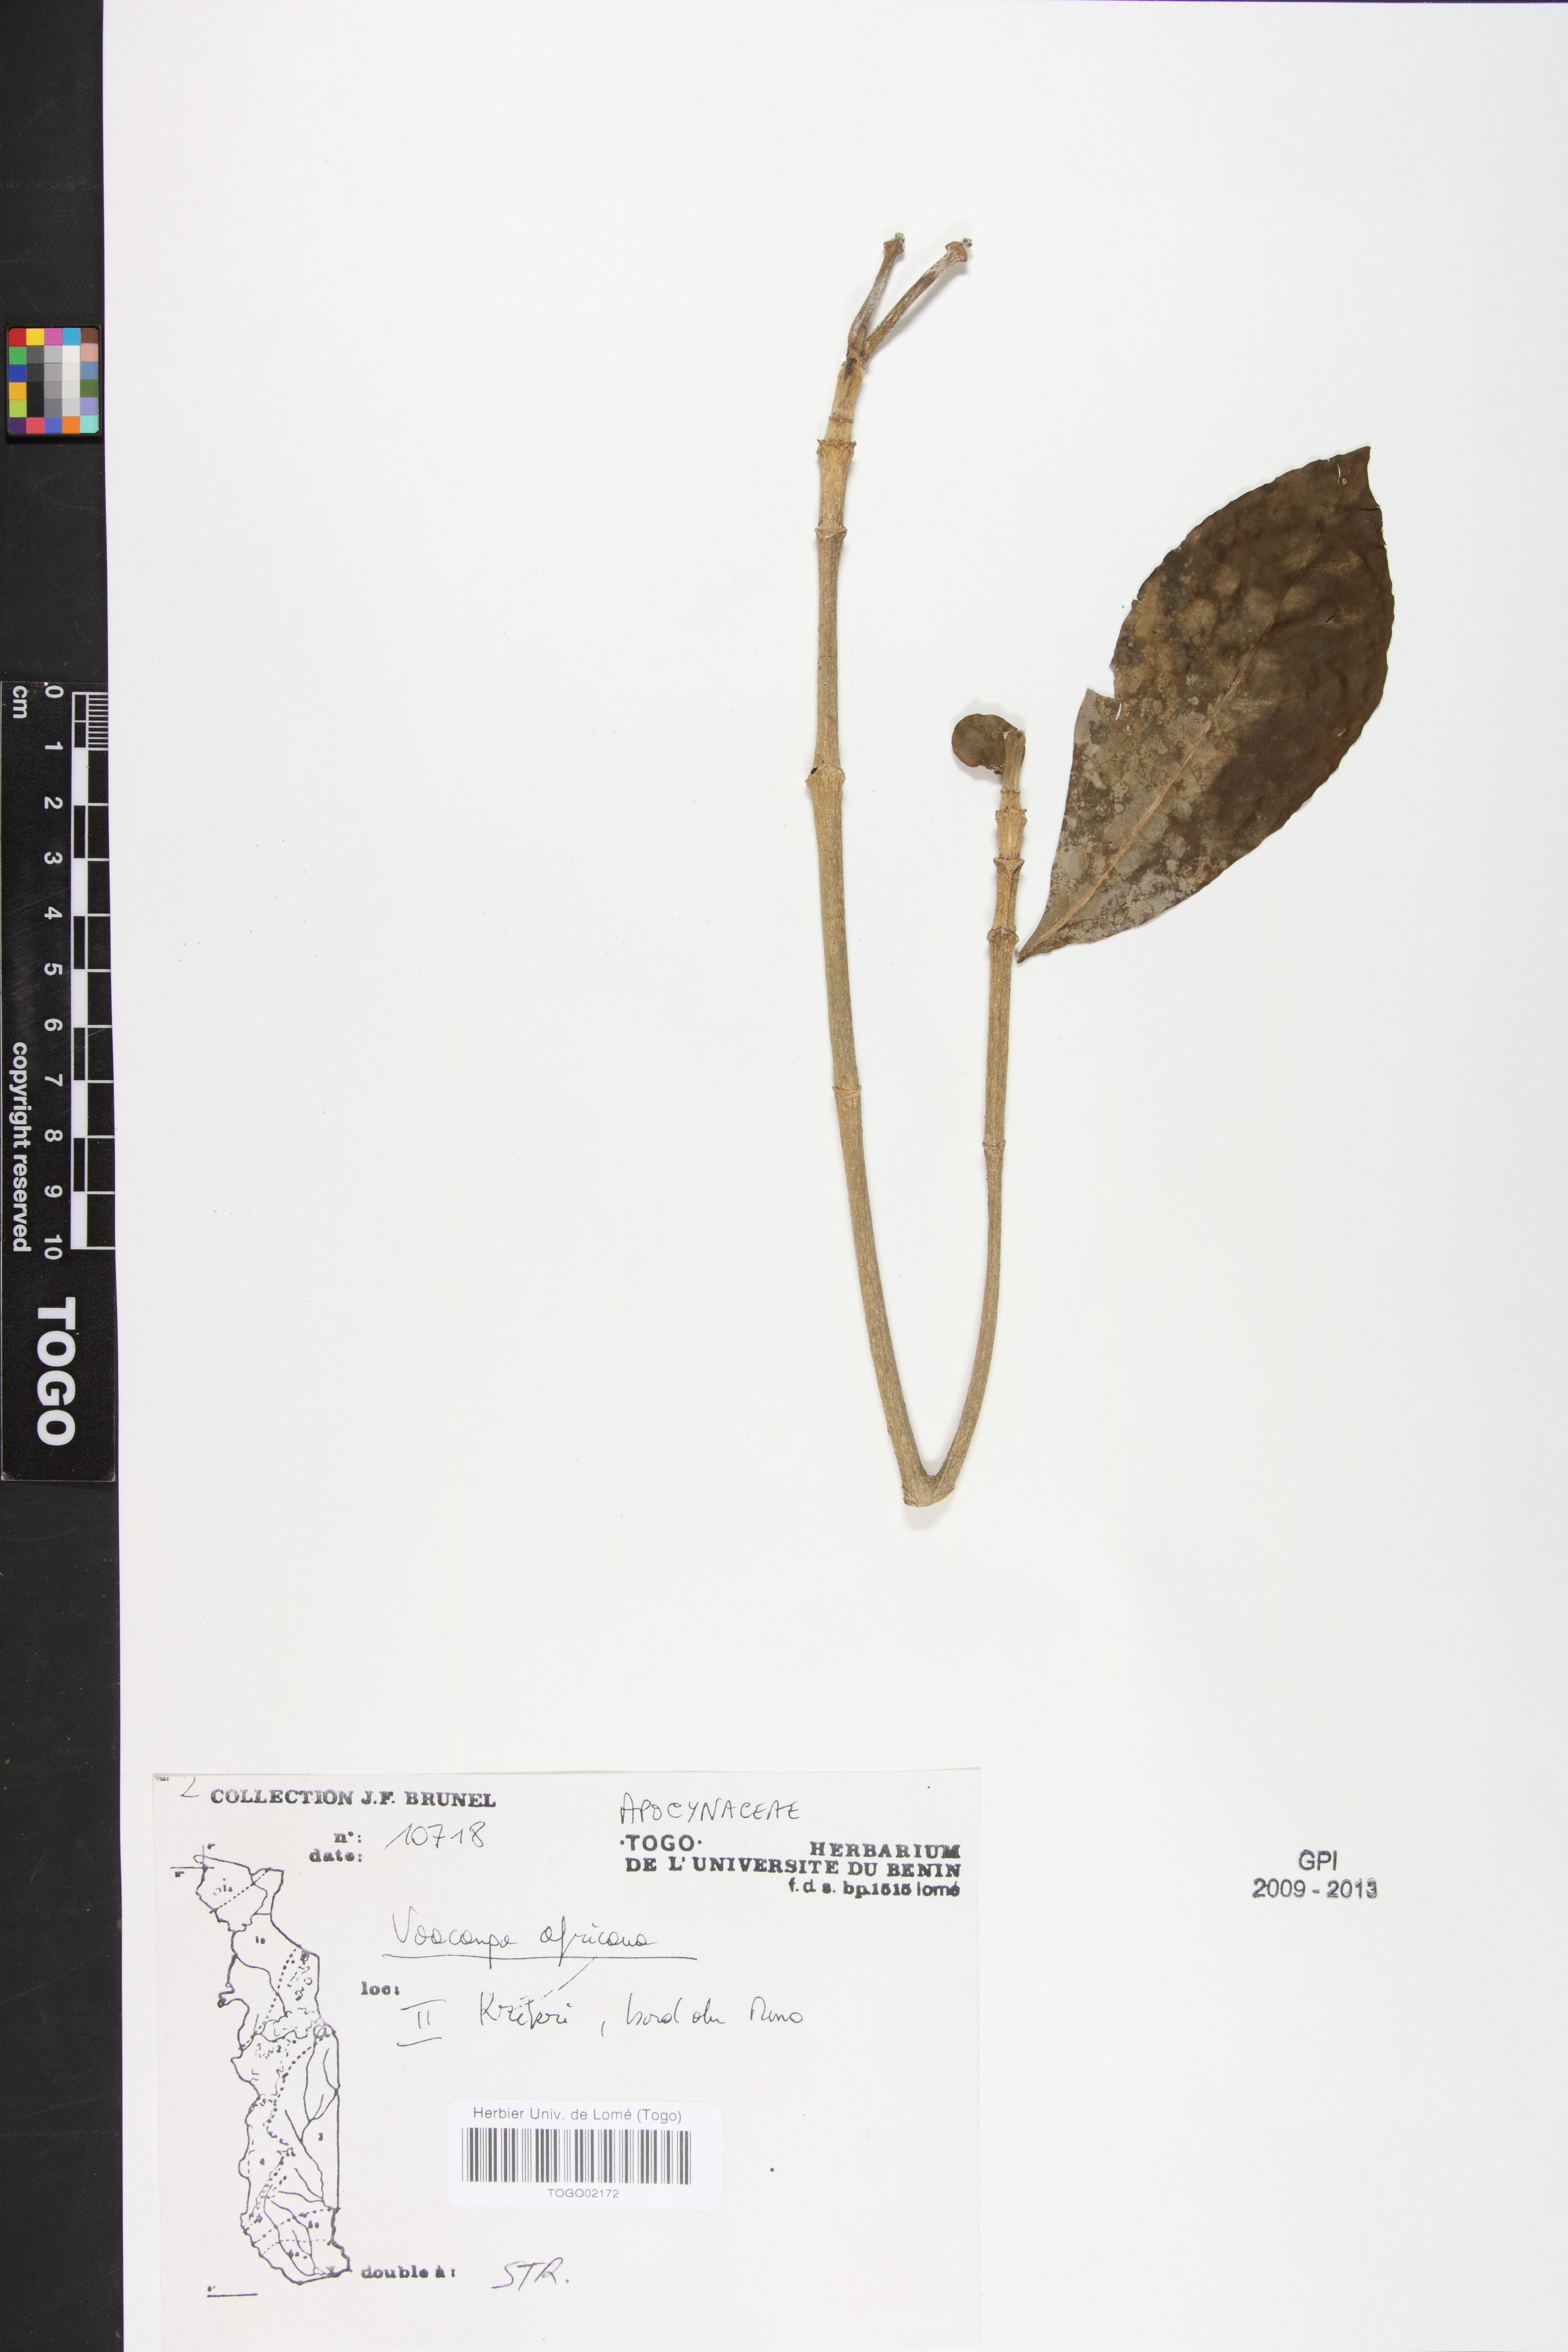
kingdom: Plantae
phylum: Tracheophyta
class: Magnoliopsida
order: Gentianales
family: Apocynaceae
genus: Voacanga
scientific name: Voacanga africana
